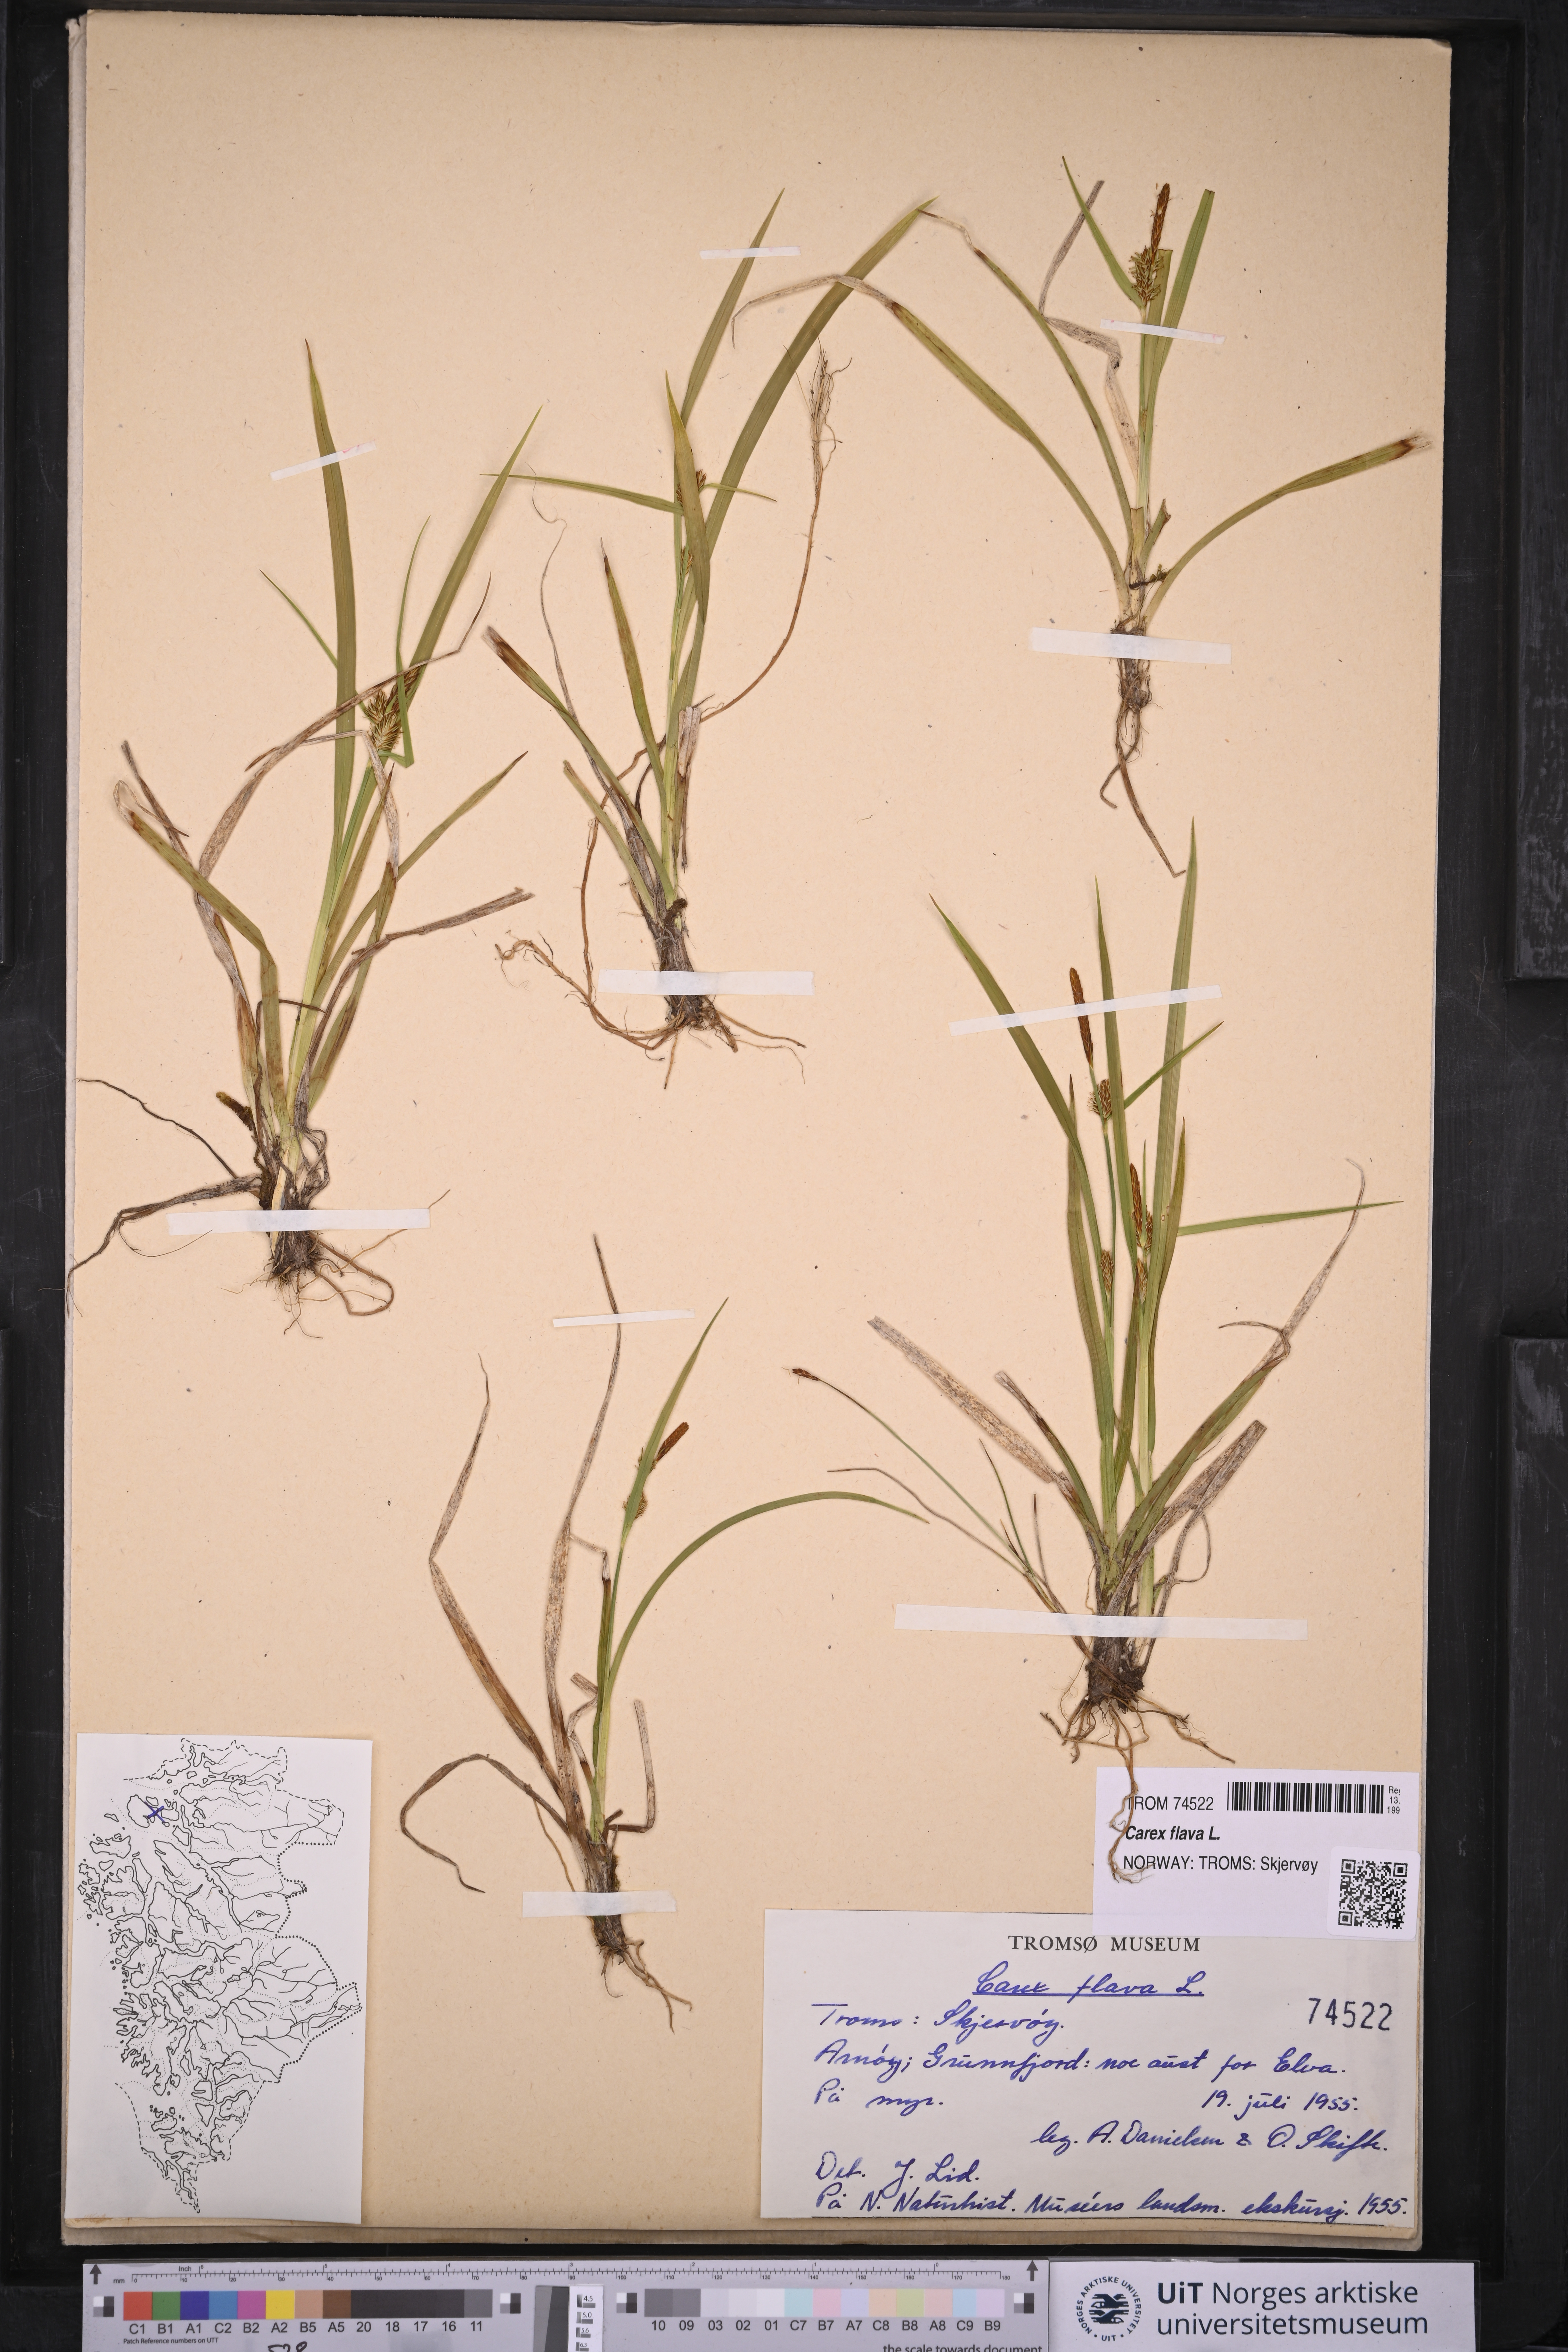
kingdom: Plantae
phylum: Tracheophyta
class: Liliopsida
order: Poales
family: Cyperaceae
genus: Carex
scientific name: Carex flava
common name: Large yellow-sedge
